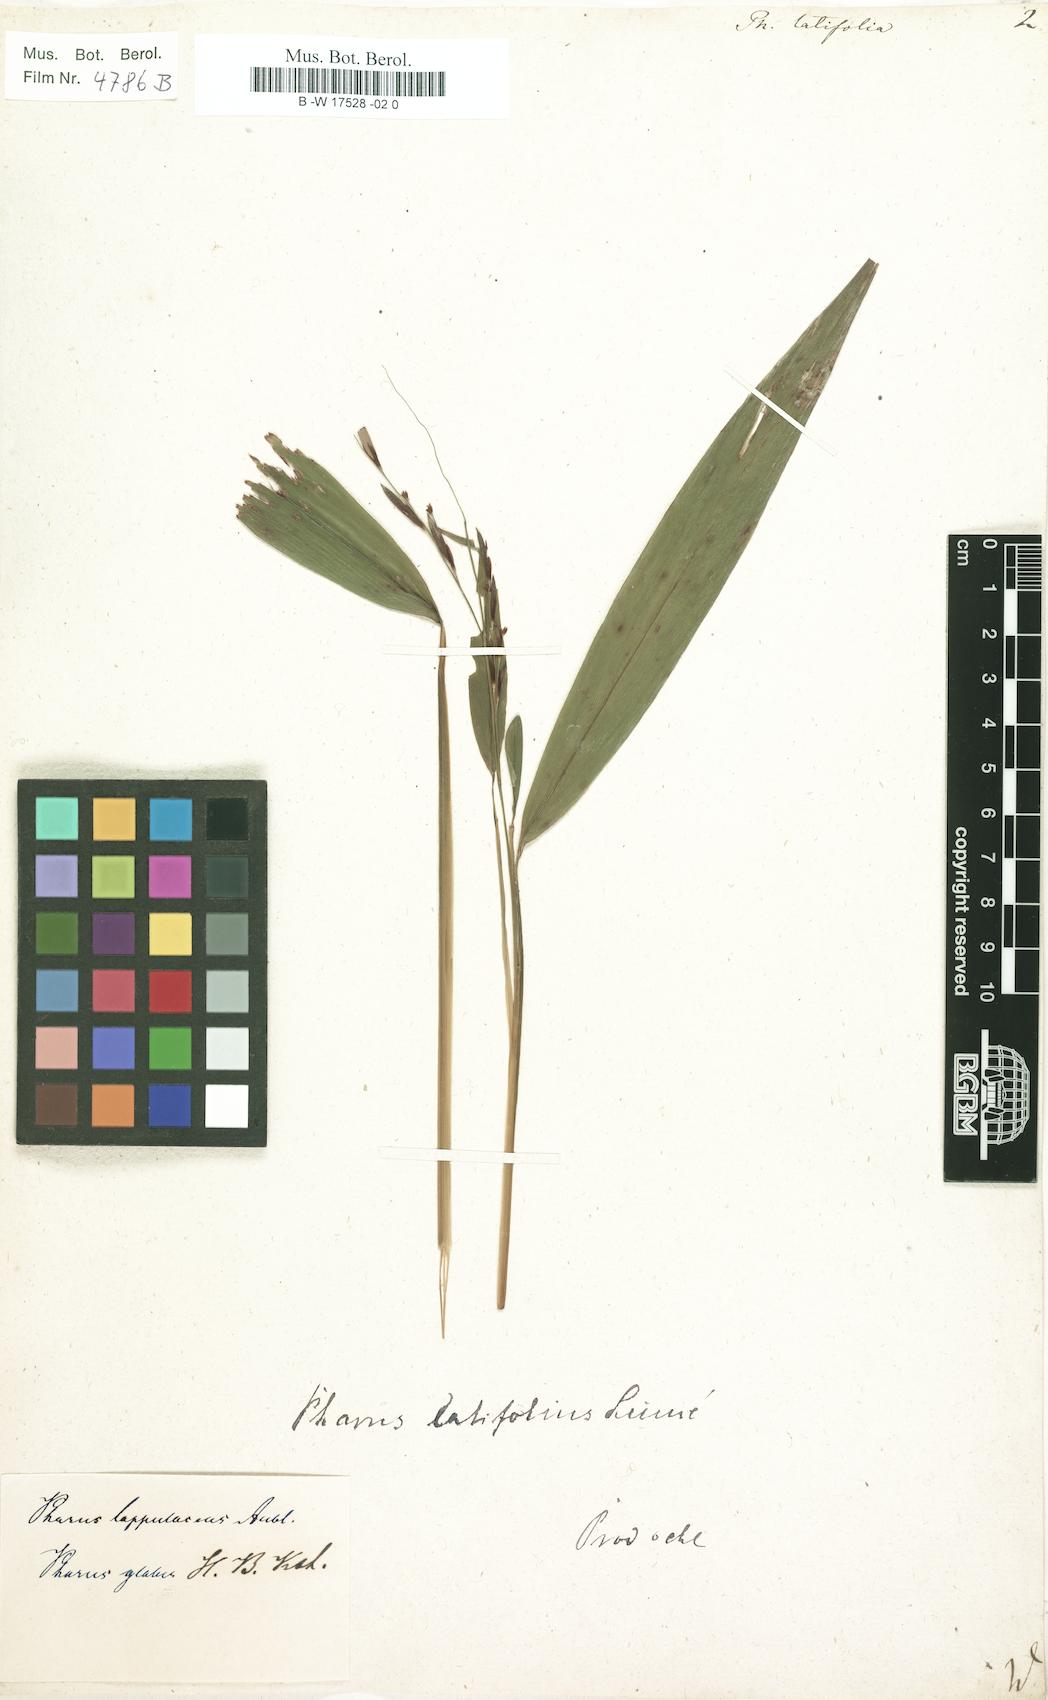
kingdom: Plantae
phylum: Tracheophyta
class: Liliopsida
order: Poales
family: Poaceae
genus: Pharus
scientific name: Pharus latifolius
